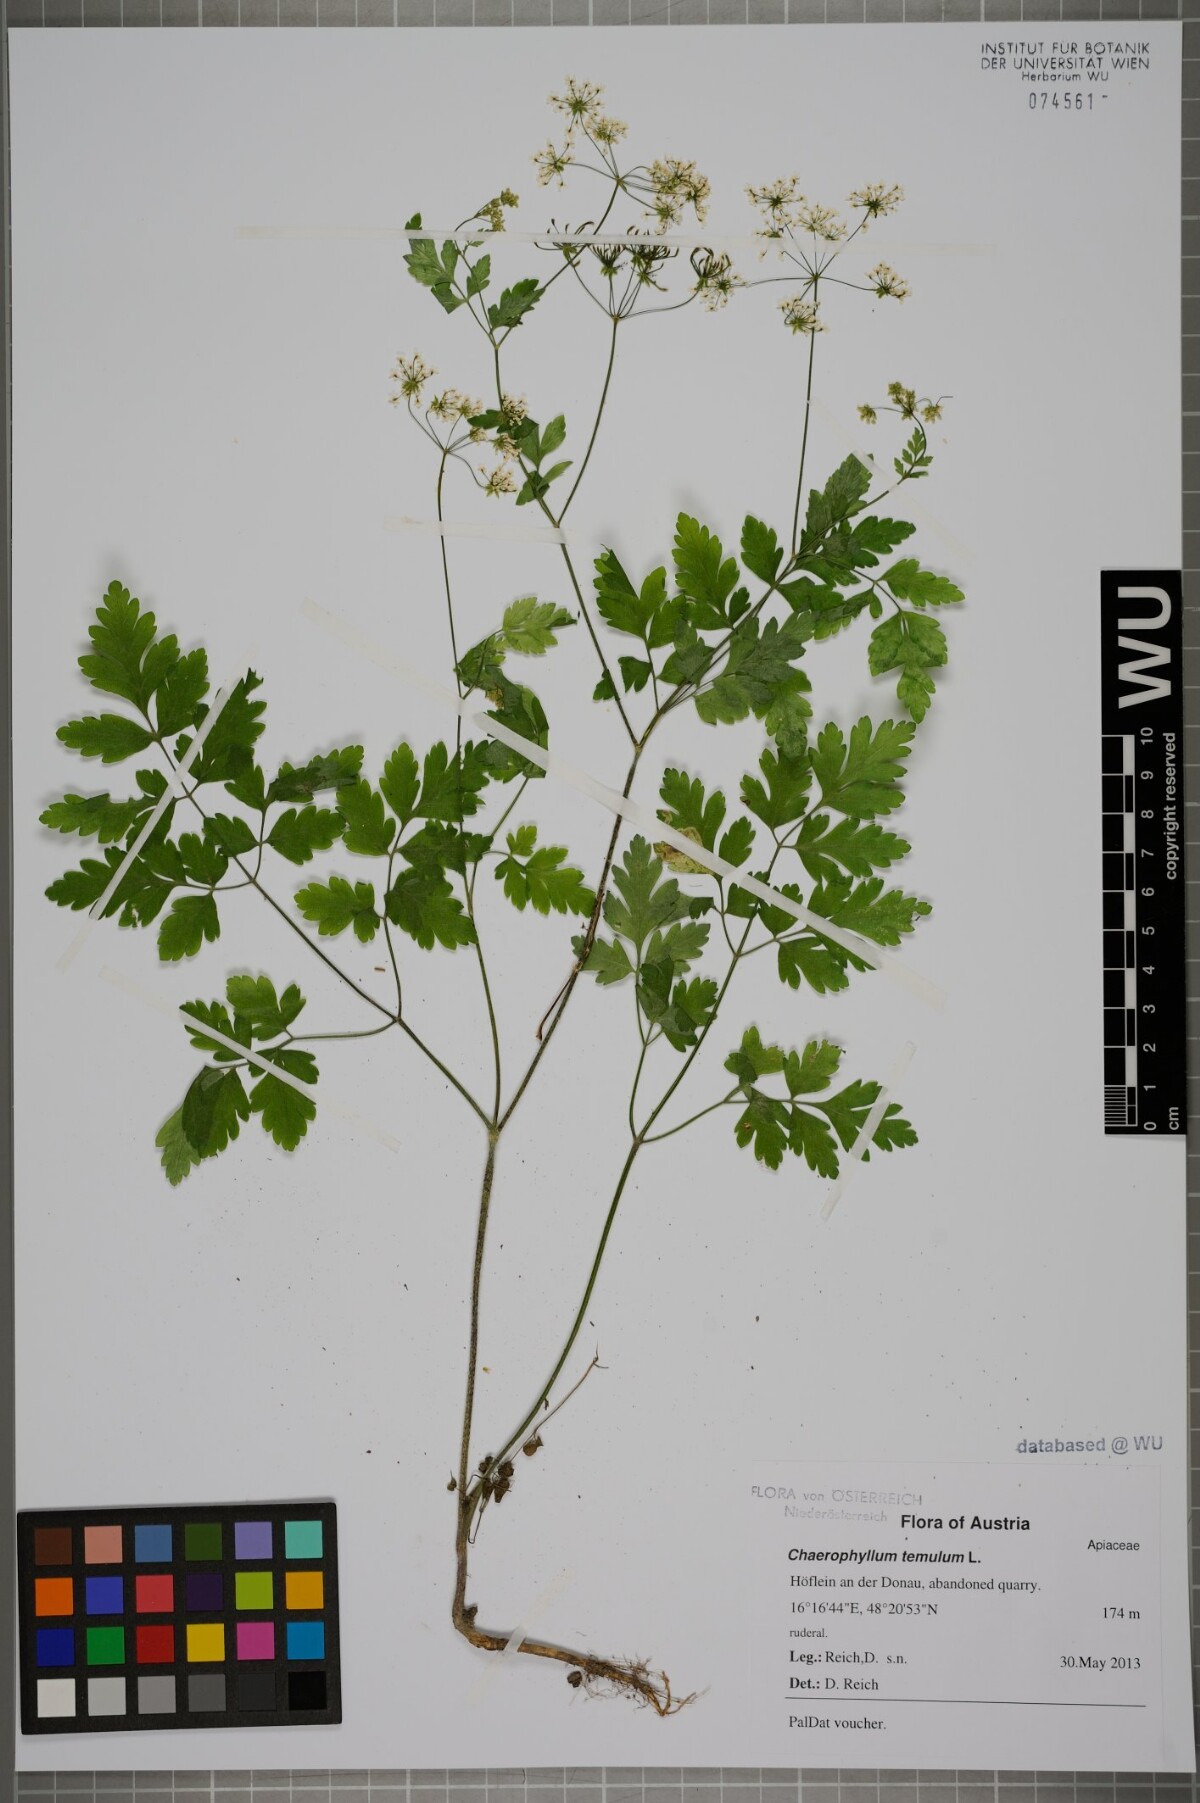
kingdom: Plantae
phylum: Tracheophyta
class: Magnoliopsida
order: Apiales
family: Apiaceae
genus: Chaerophyllum
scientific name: Chaerophyllum temulum
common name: Rough chervil
